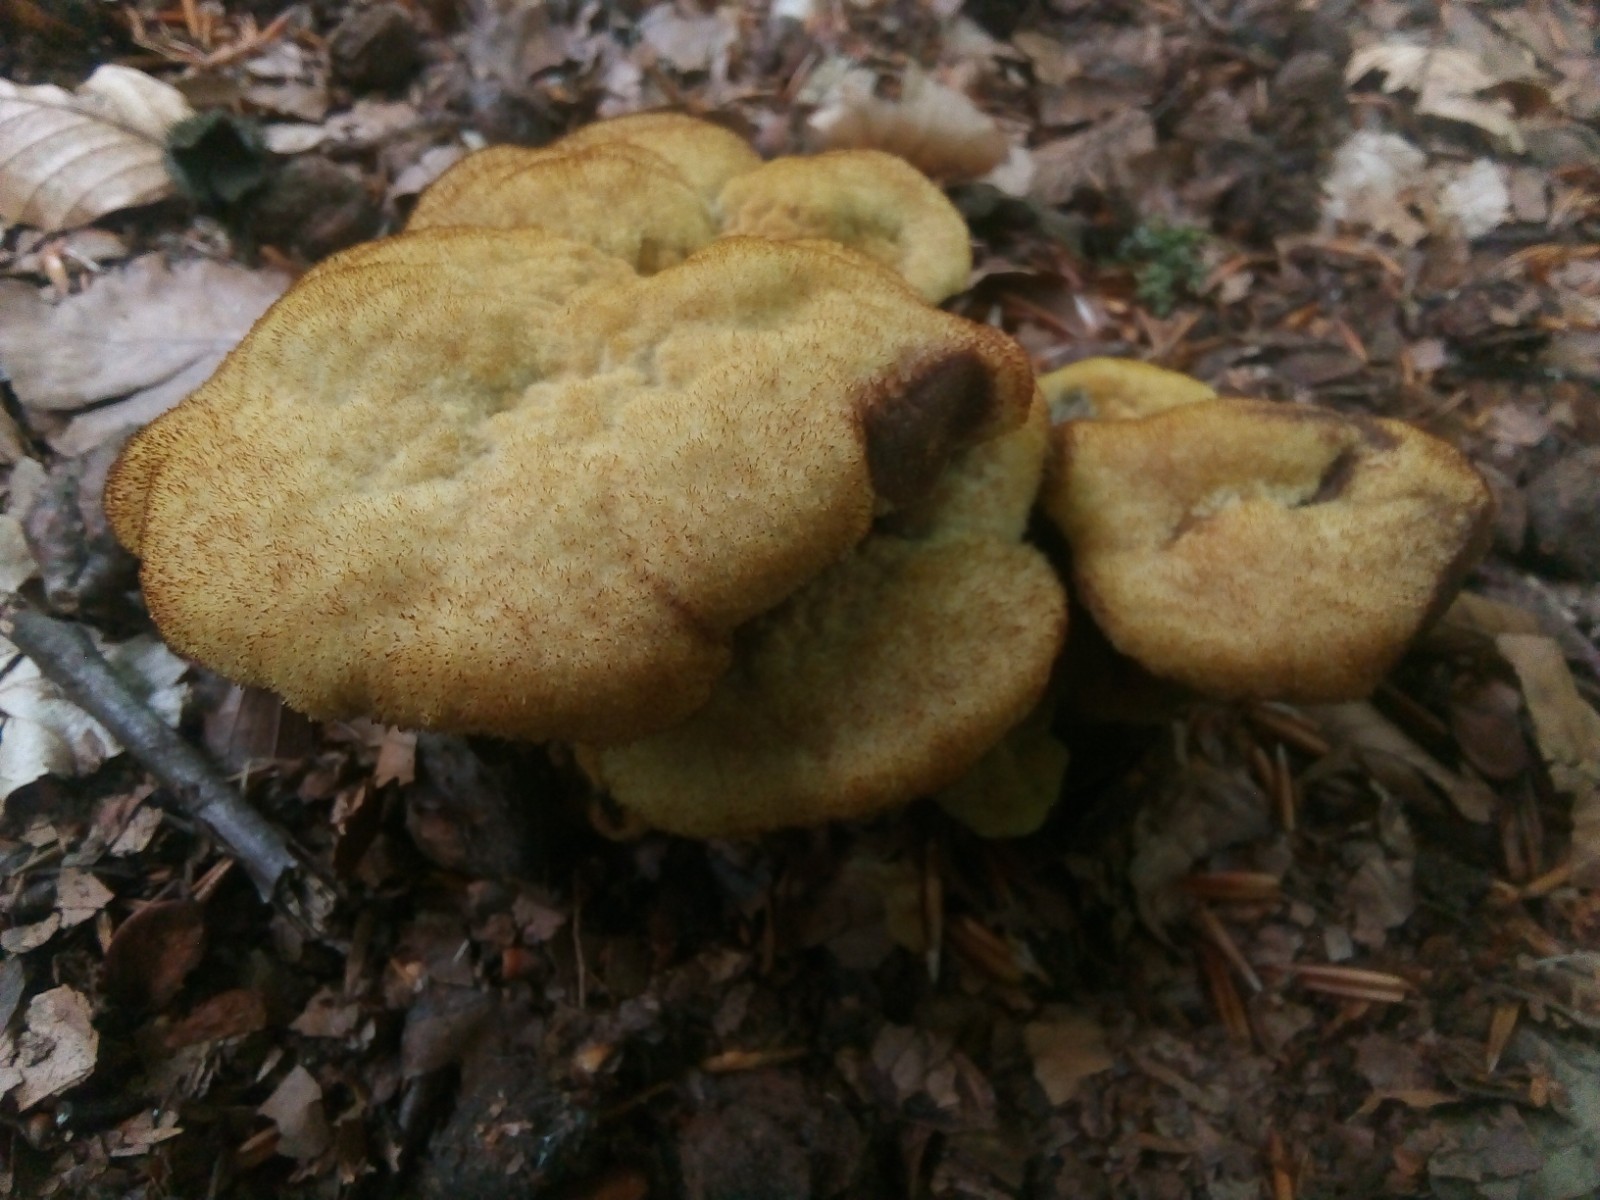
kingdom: Fungi
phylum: Basidiomycota
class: Agaricomycetes
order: Polyporales
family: Laetiporaceae
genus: Phaeolus
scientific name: Phaeolus schweinitzii
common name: brunporesvamp
